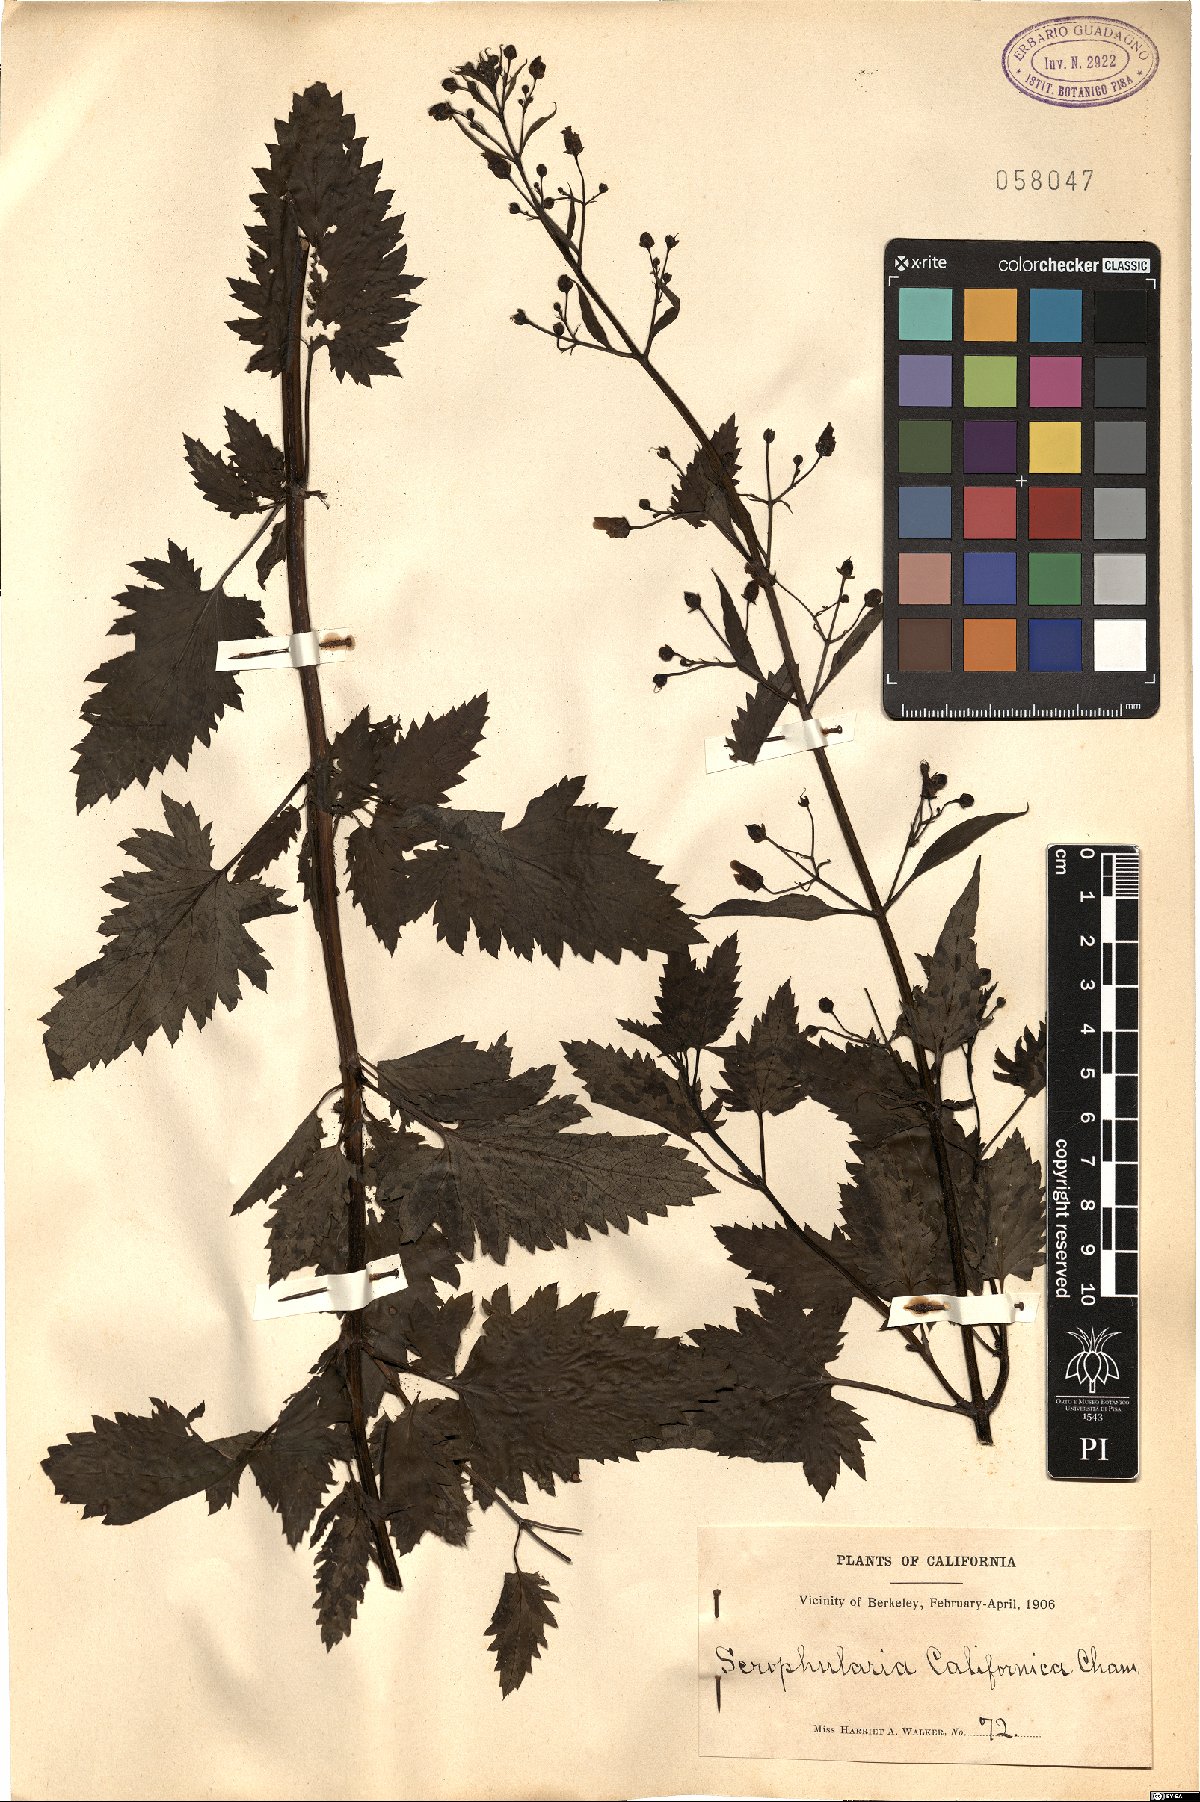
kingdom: Plantae
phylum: Tracheophyta
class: Magnoliopsida
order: Lamiales
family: Scrophulariaceae
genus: Scrophularia
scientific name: Scrophularia californica
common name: California figwort
